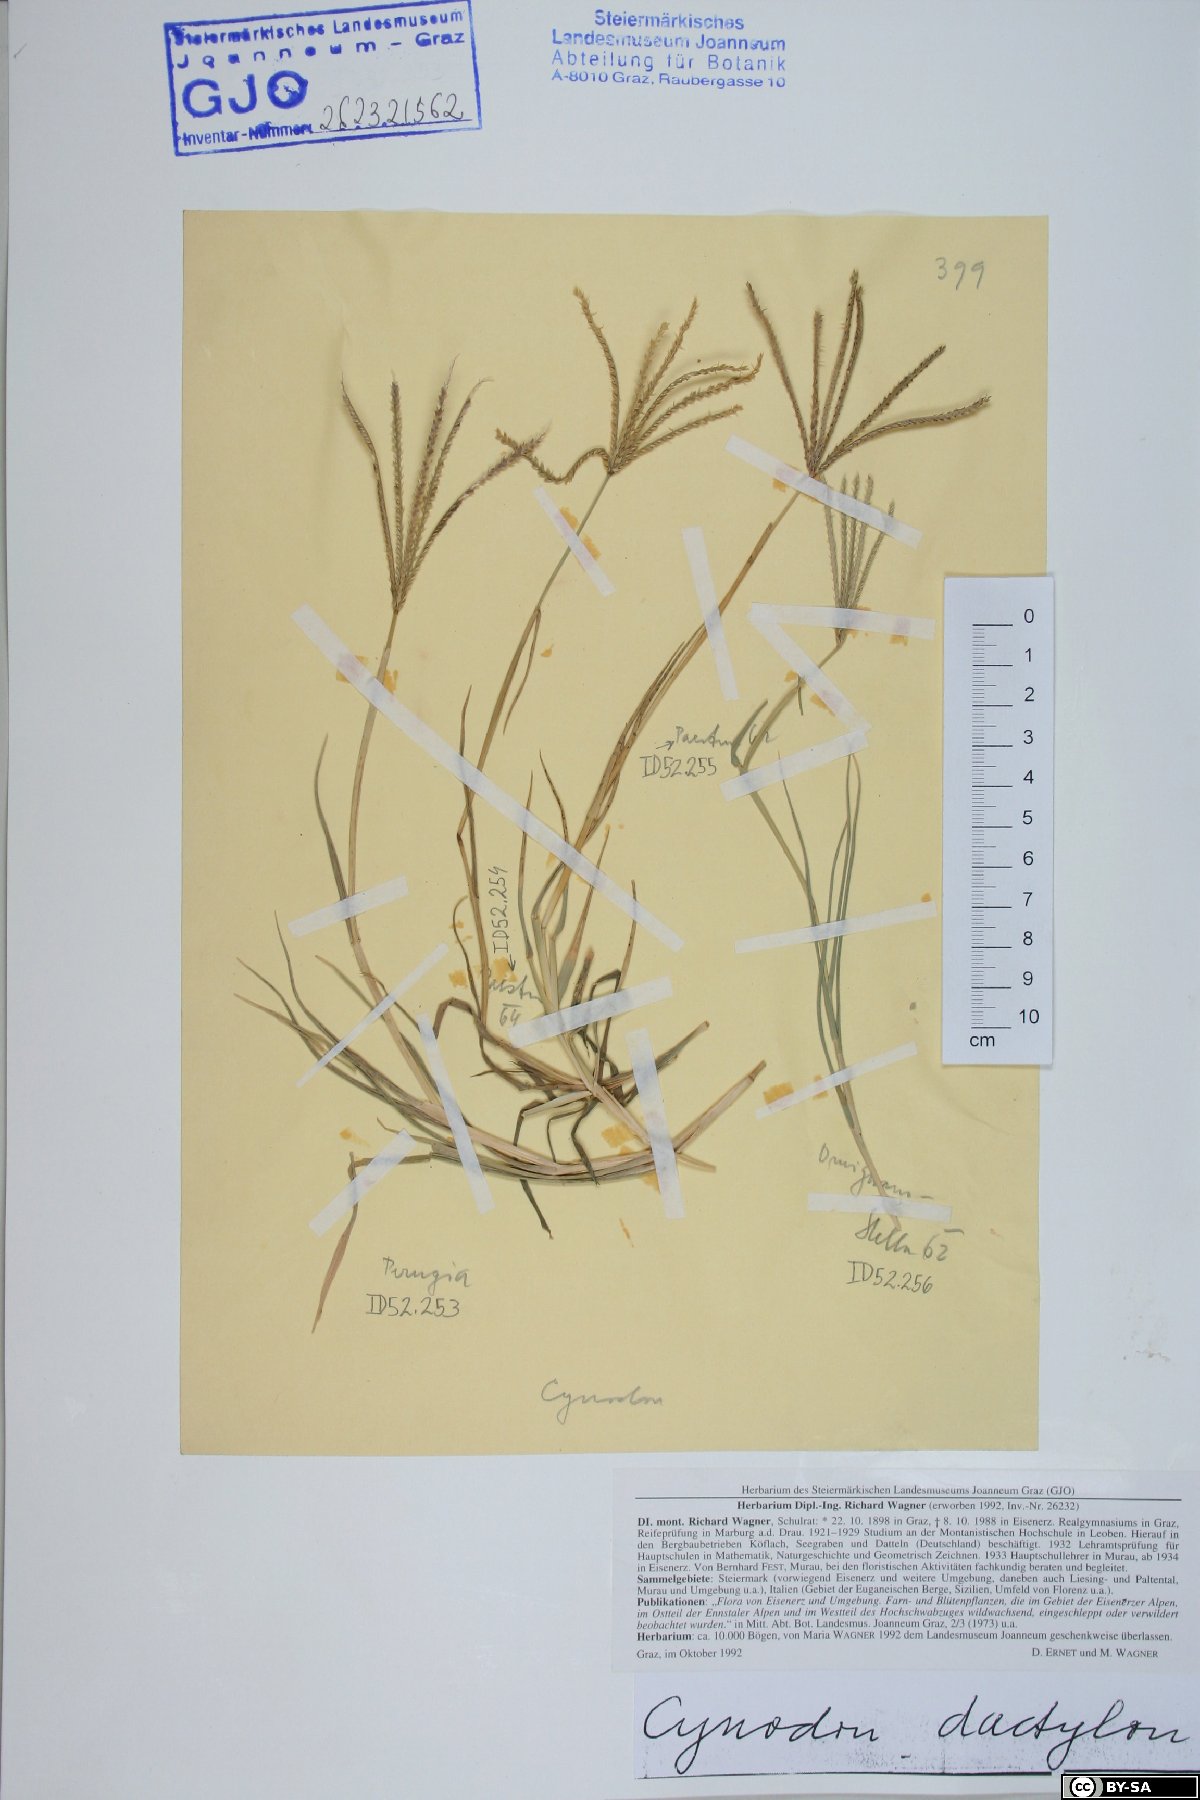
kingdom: Plantae
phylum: Tracheophyta
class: Liliopsida
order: Poales
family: Poaceae
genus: Cynodon
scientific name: Cynodon dactylon
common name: Bermuda grass
